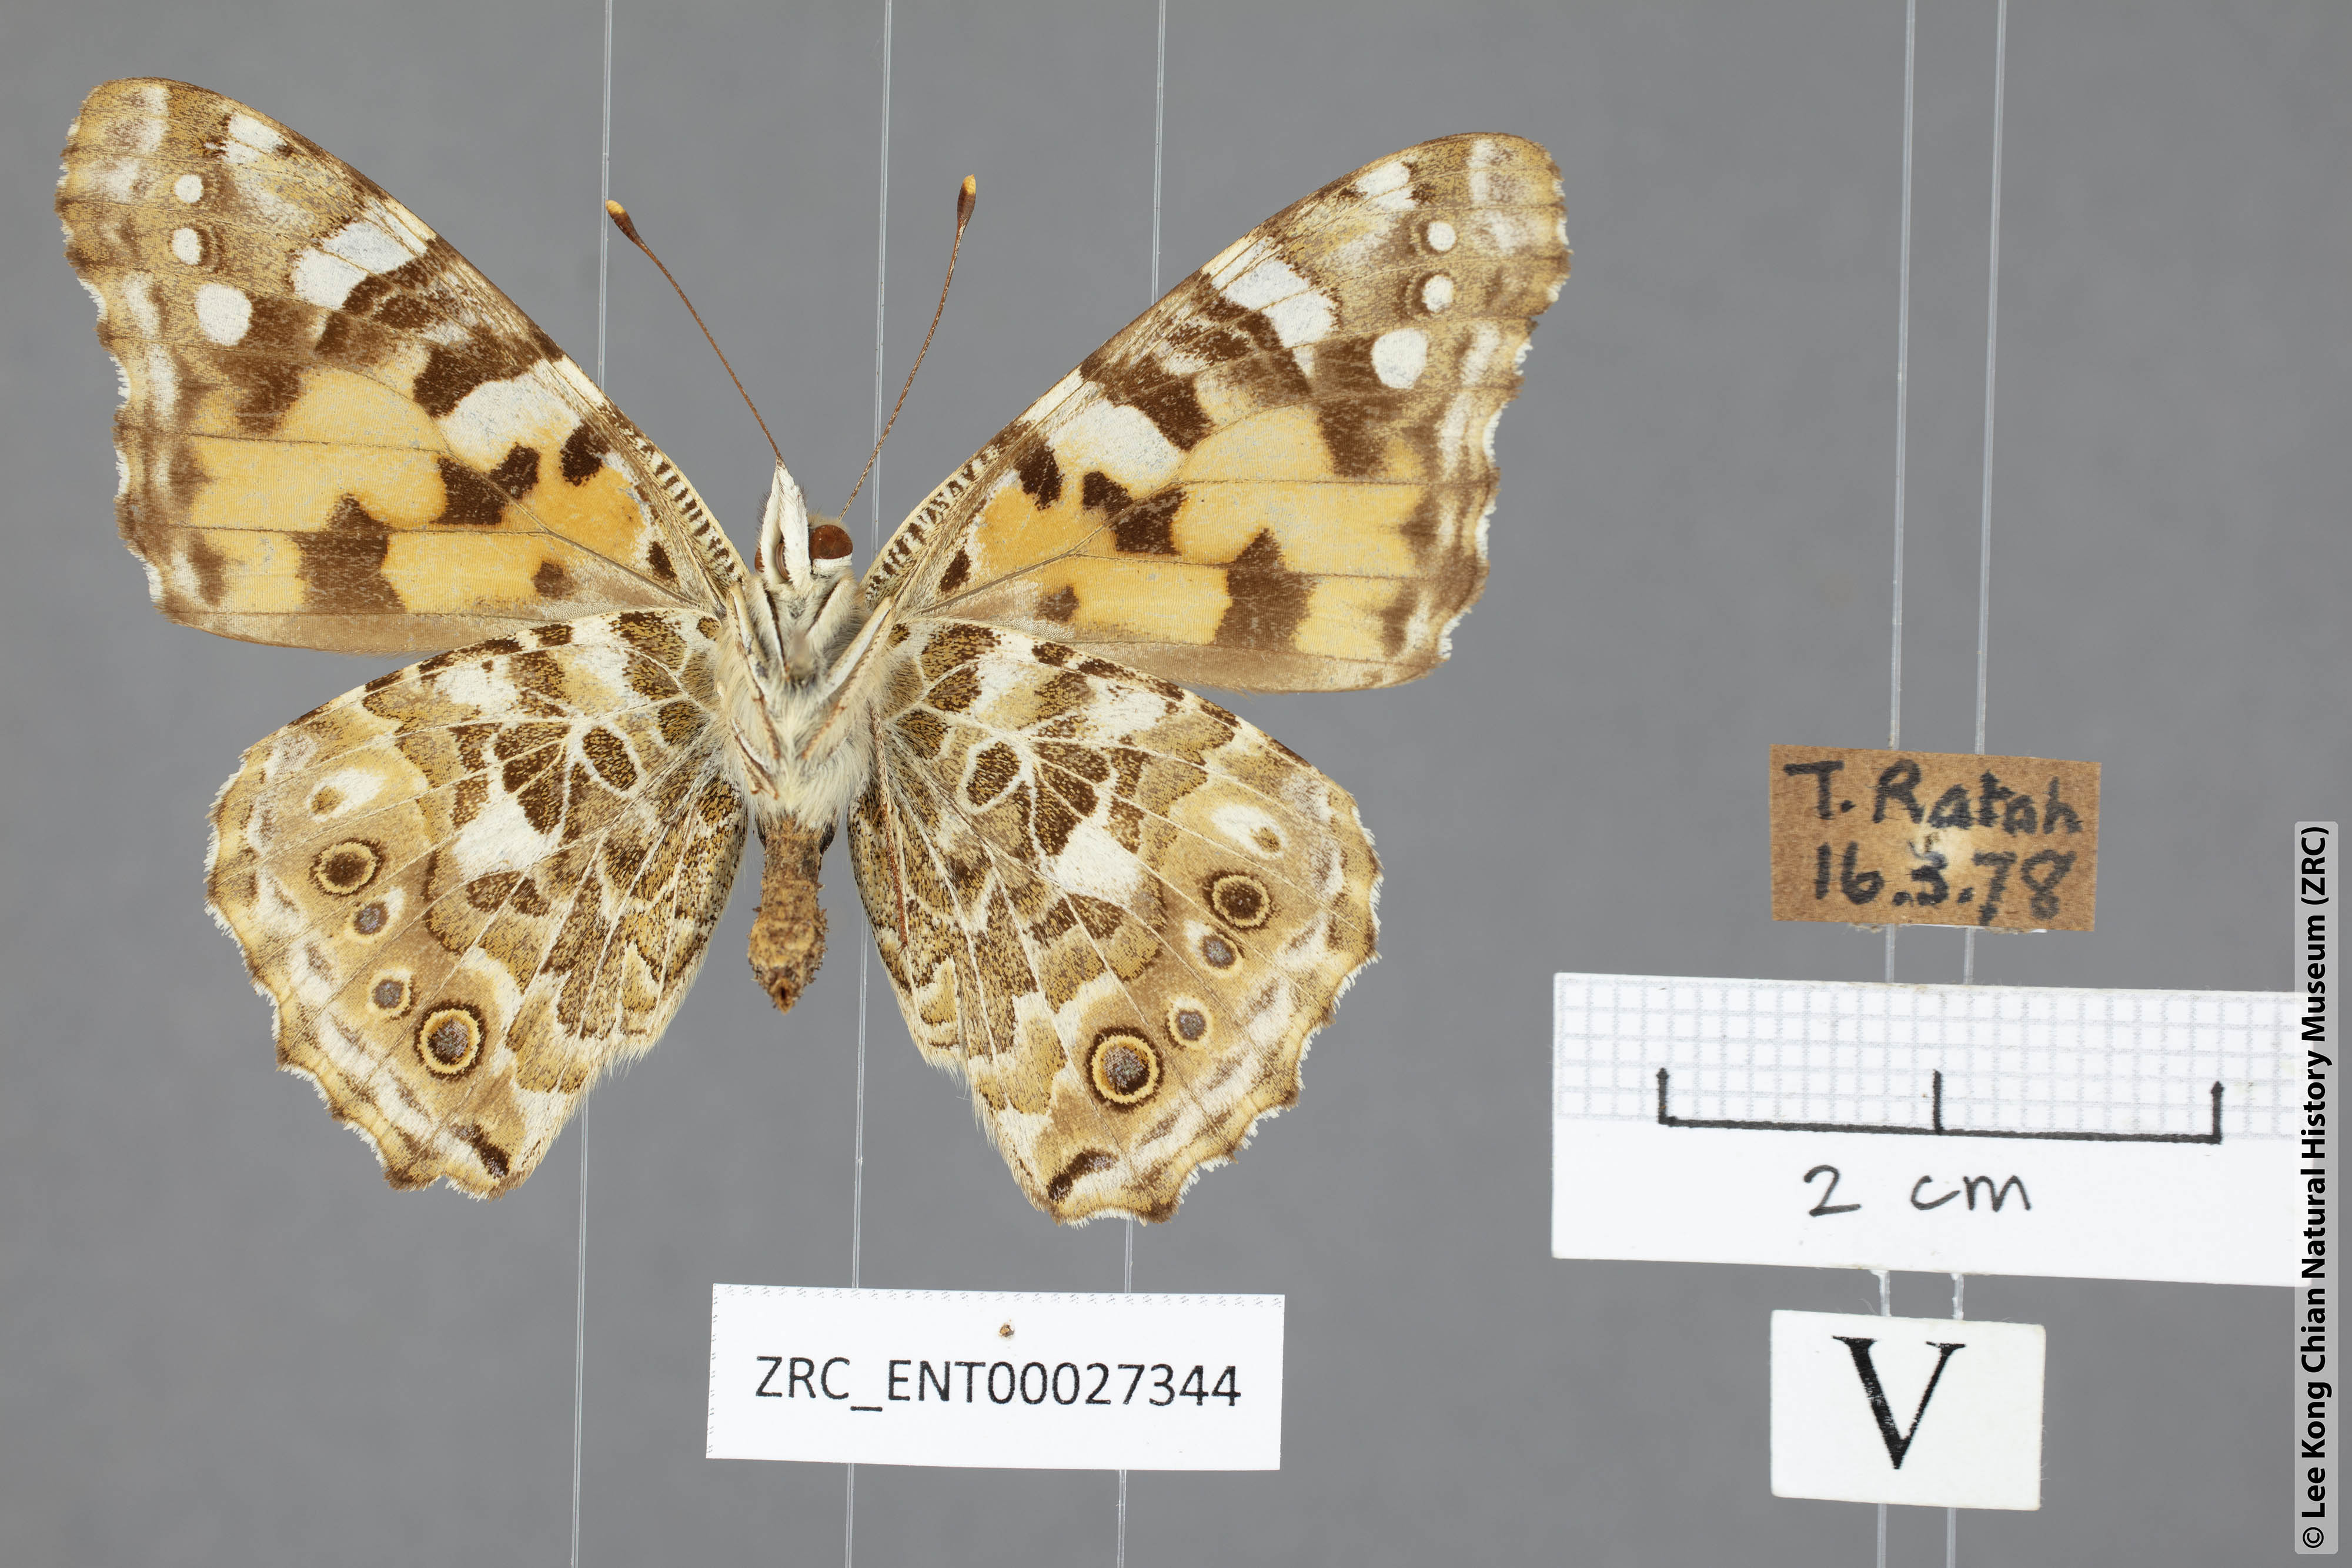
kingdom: Animalia
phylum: Arthropoda
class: Insecta
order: Lepidoptera
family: Nymphalidae
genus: Vanessa
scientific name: Vanessa cardui
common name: Painted lady
